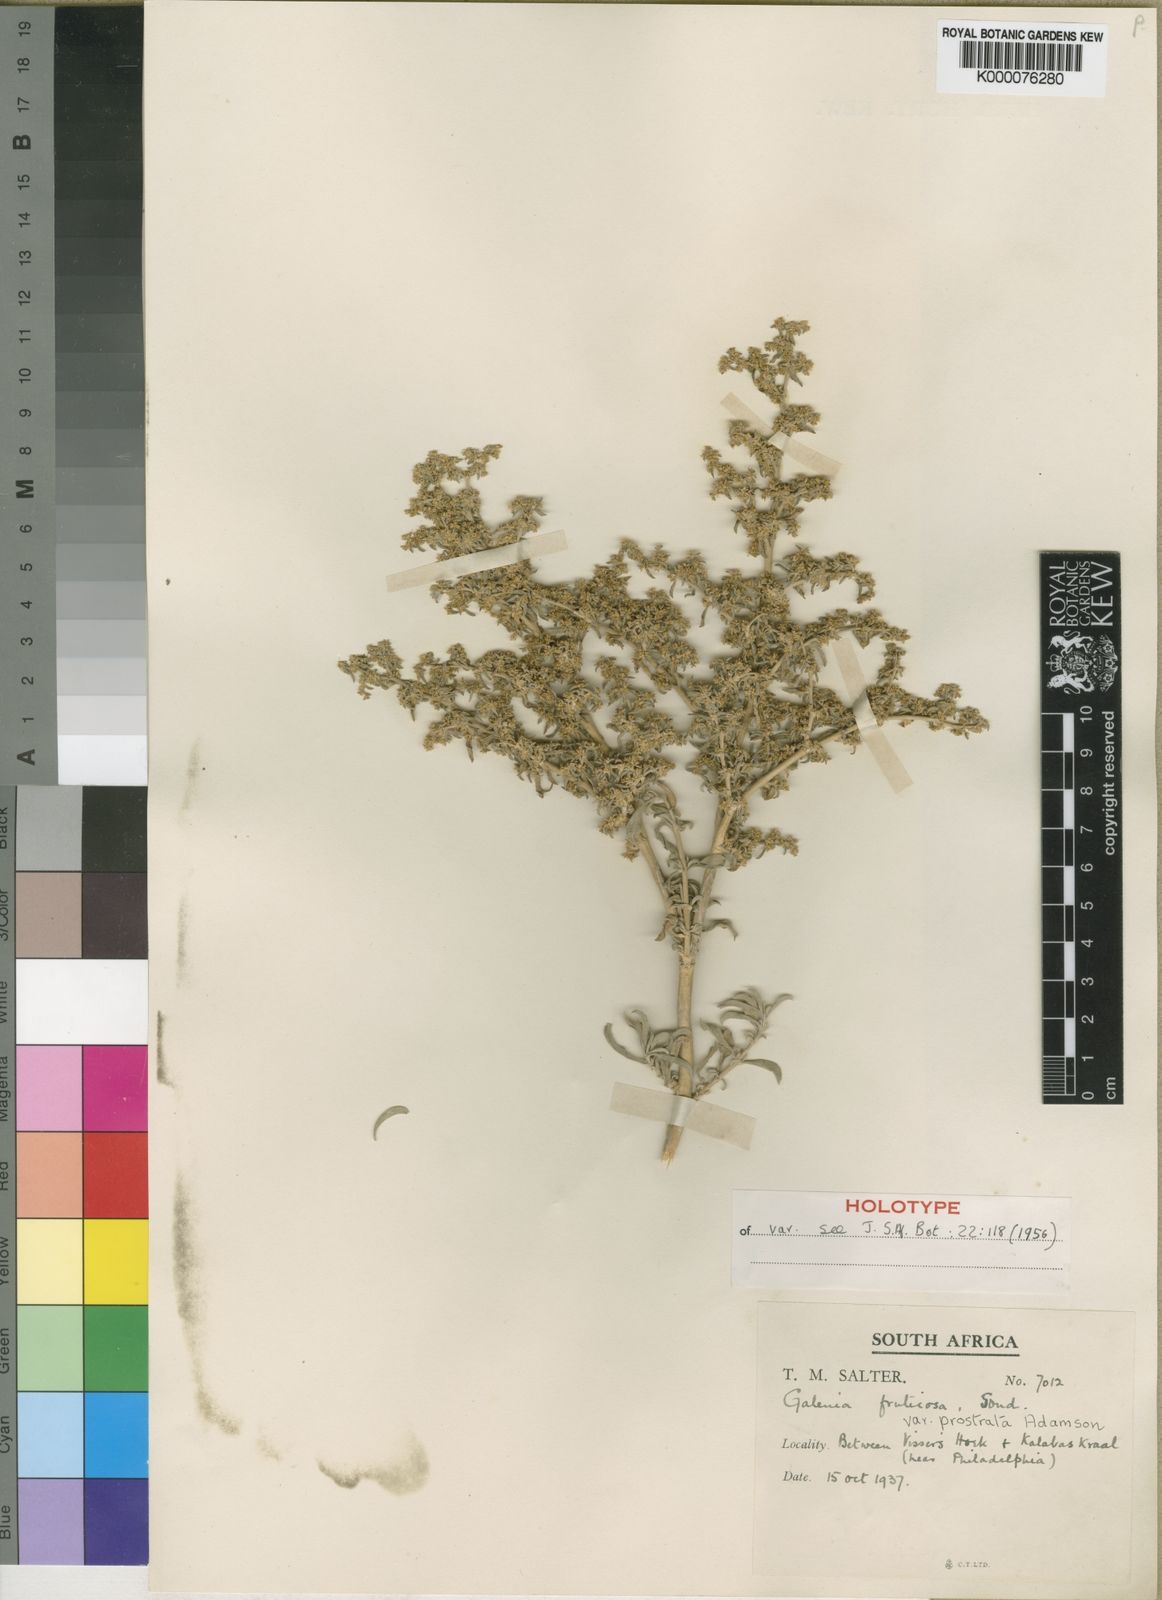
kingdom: Plantae
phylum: Tracheophyta
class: Magnoliopsida
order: Caryophyllales
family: Aizoaceae
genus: Aizoon
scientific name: Aizoon fruticosum
